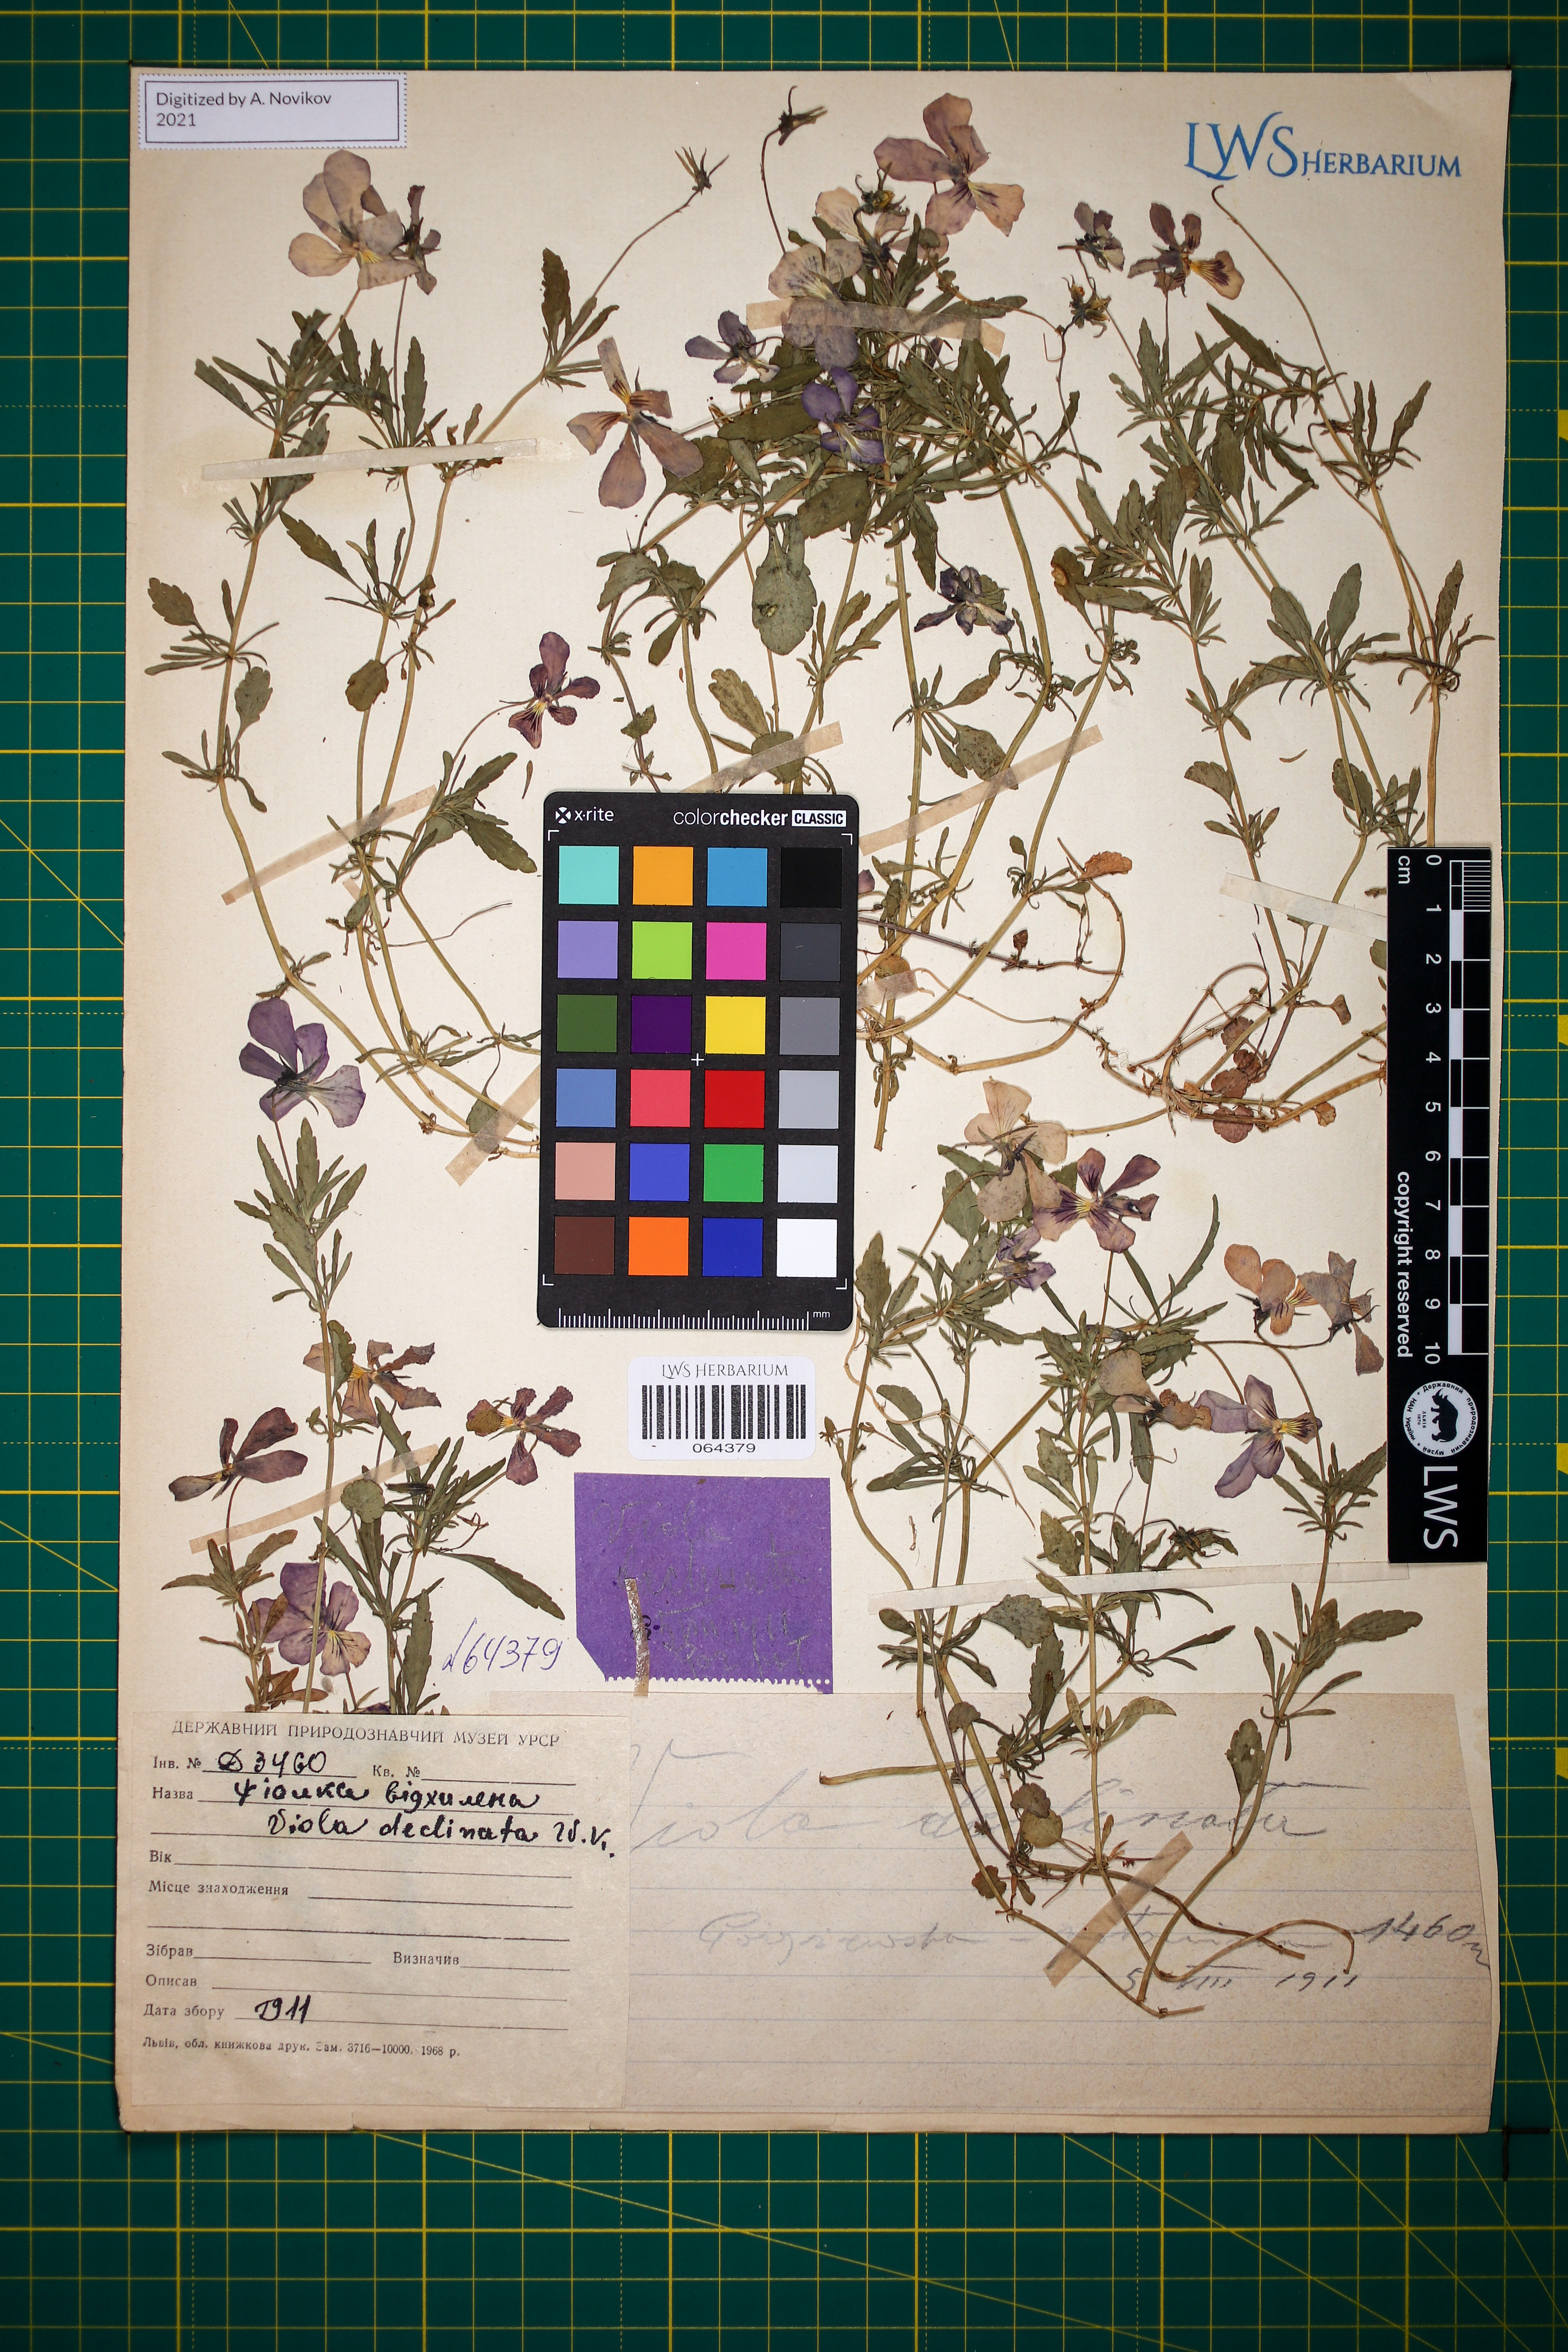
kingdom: Plantae
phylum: Tracheophyta
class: Magnoliopsida
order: Malpighiales
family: Violaceae
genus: Viola
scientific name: Viola declinata
